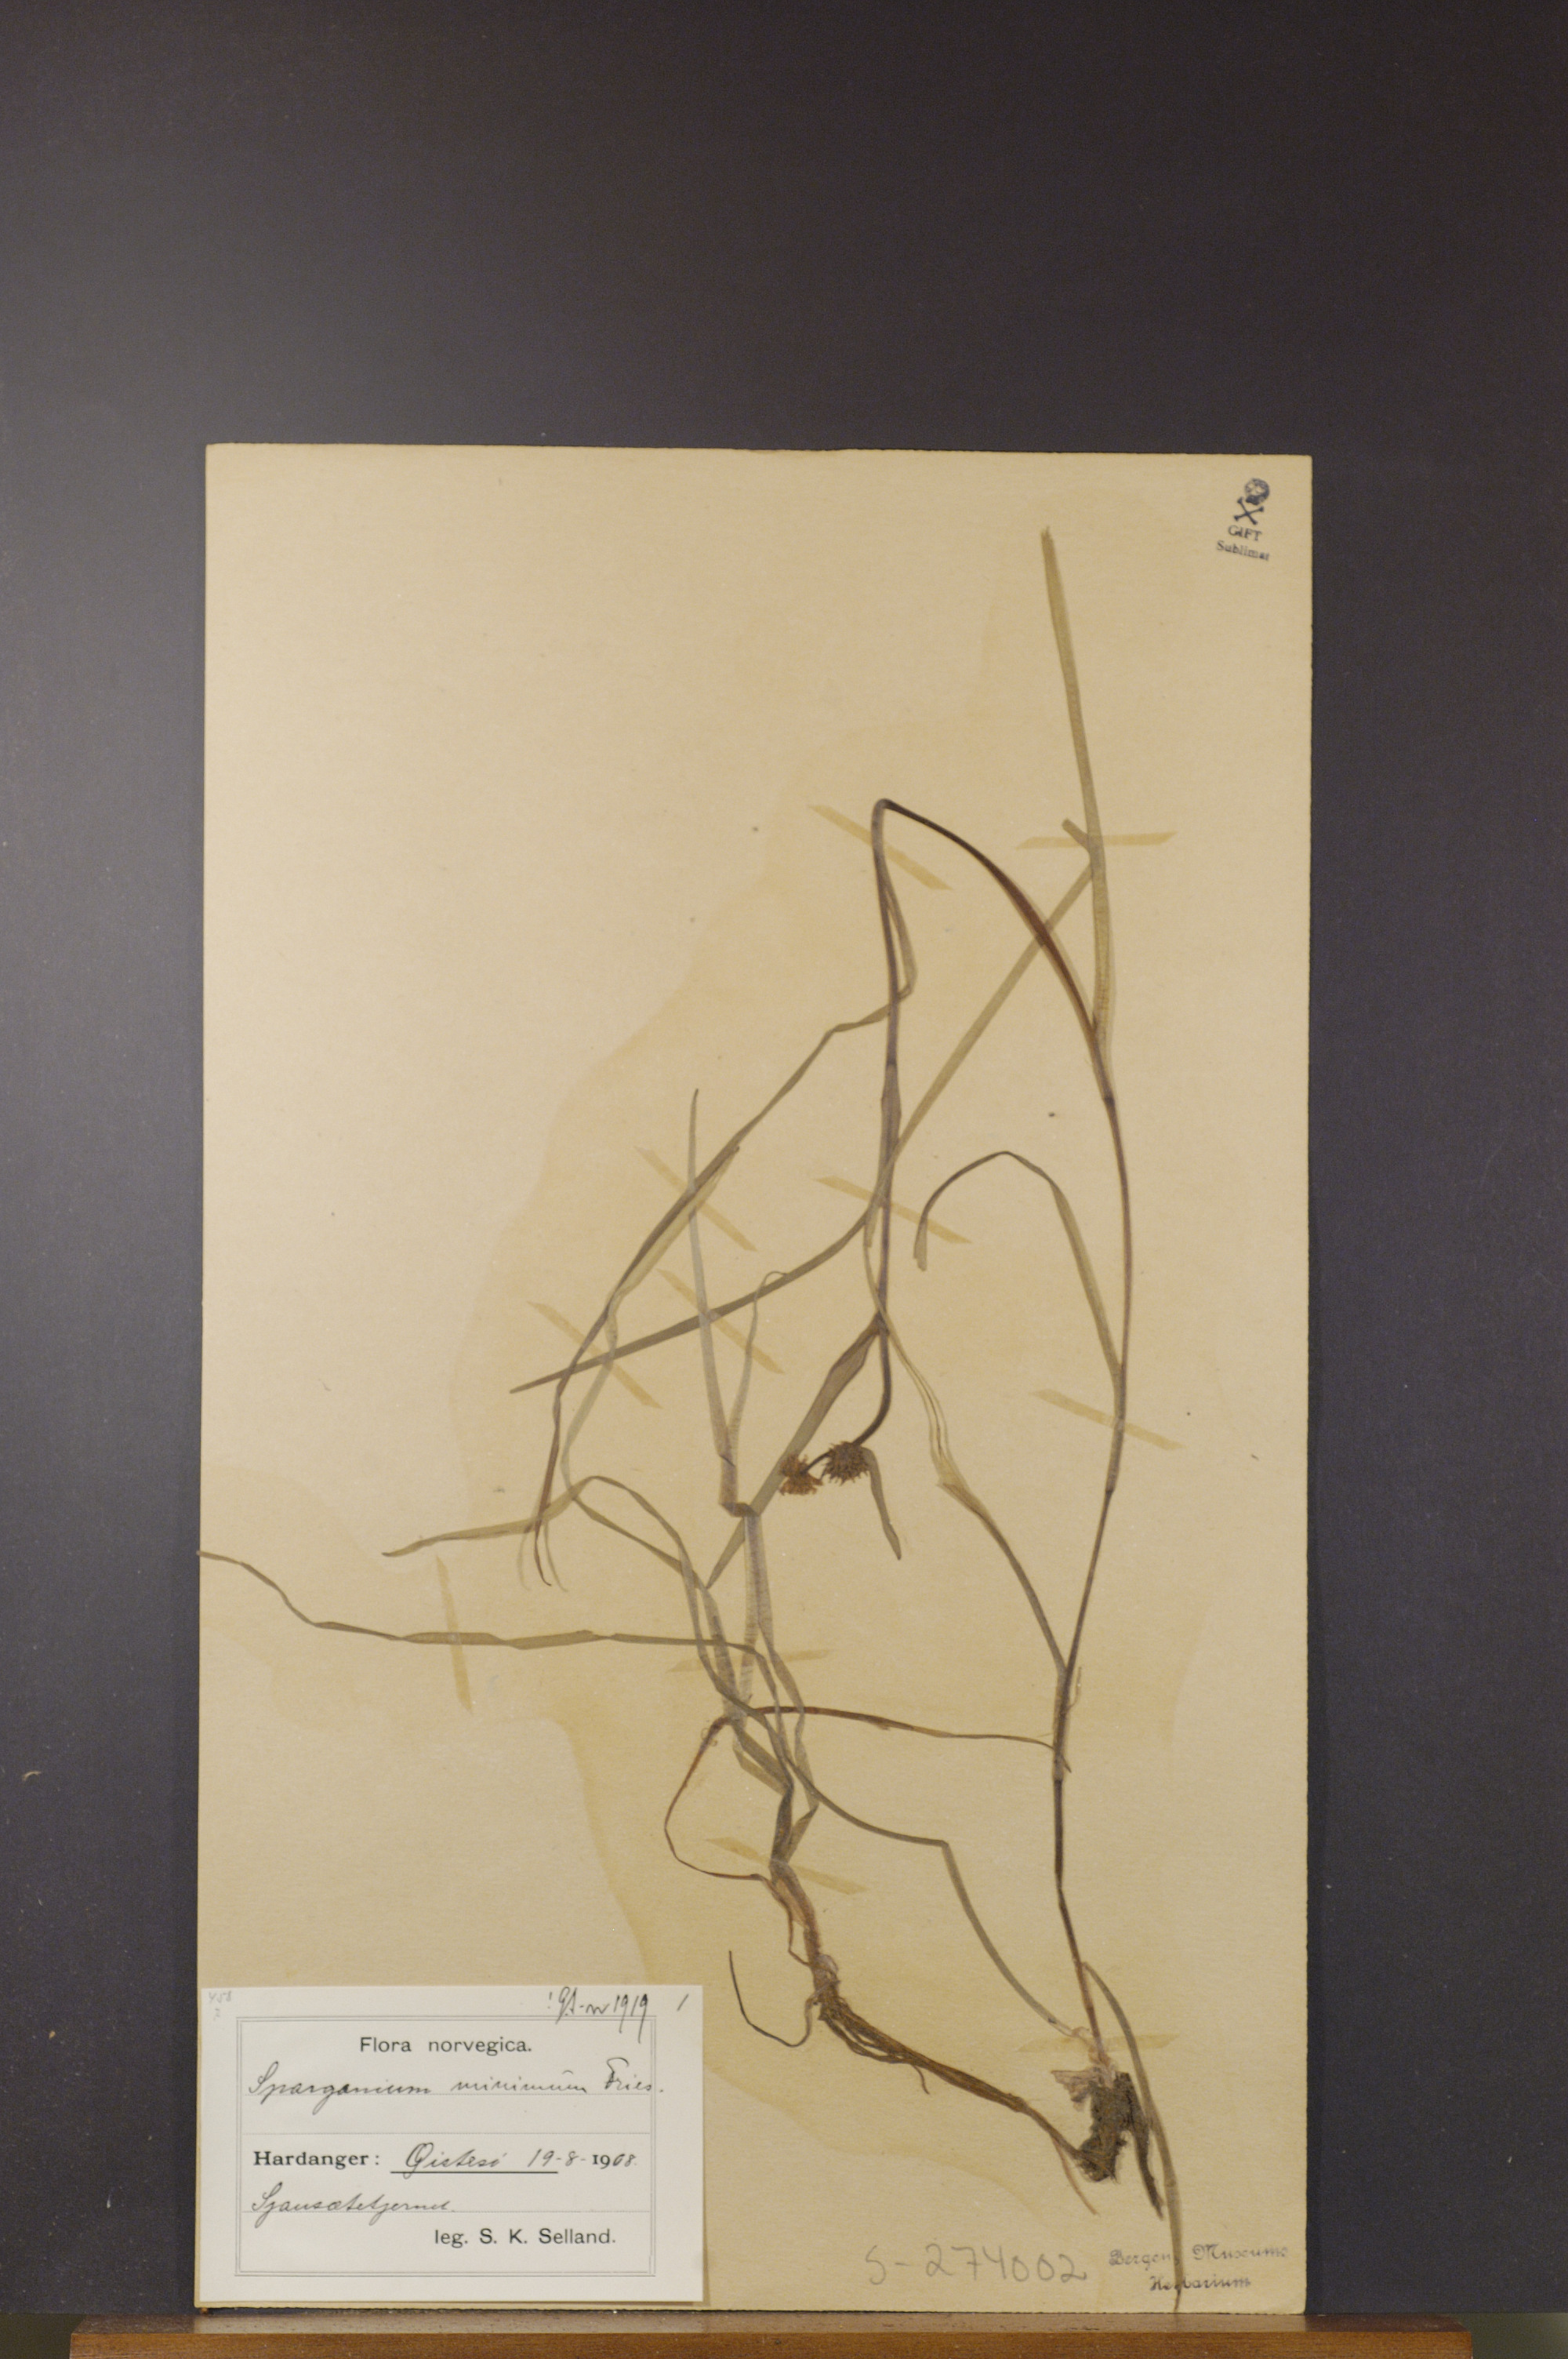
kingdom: Plantae
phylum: Tracheophyta
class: Liliopsida
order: Poales
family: Typhaceae
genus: Sparganium
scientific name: Sparganium natans
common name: Least bur-reed
